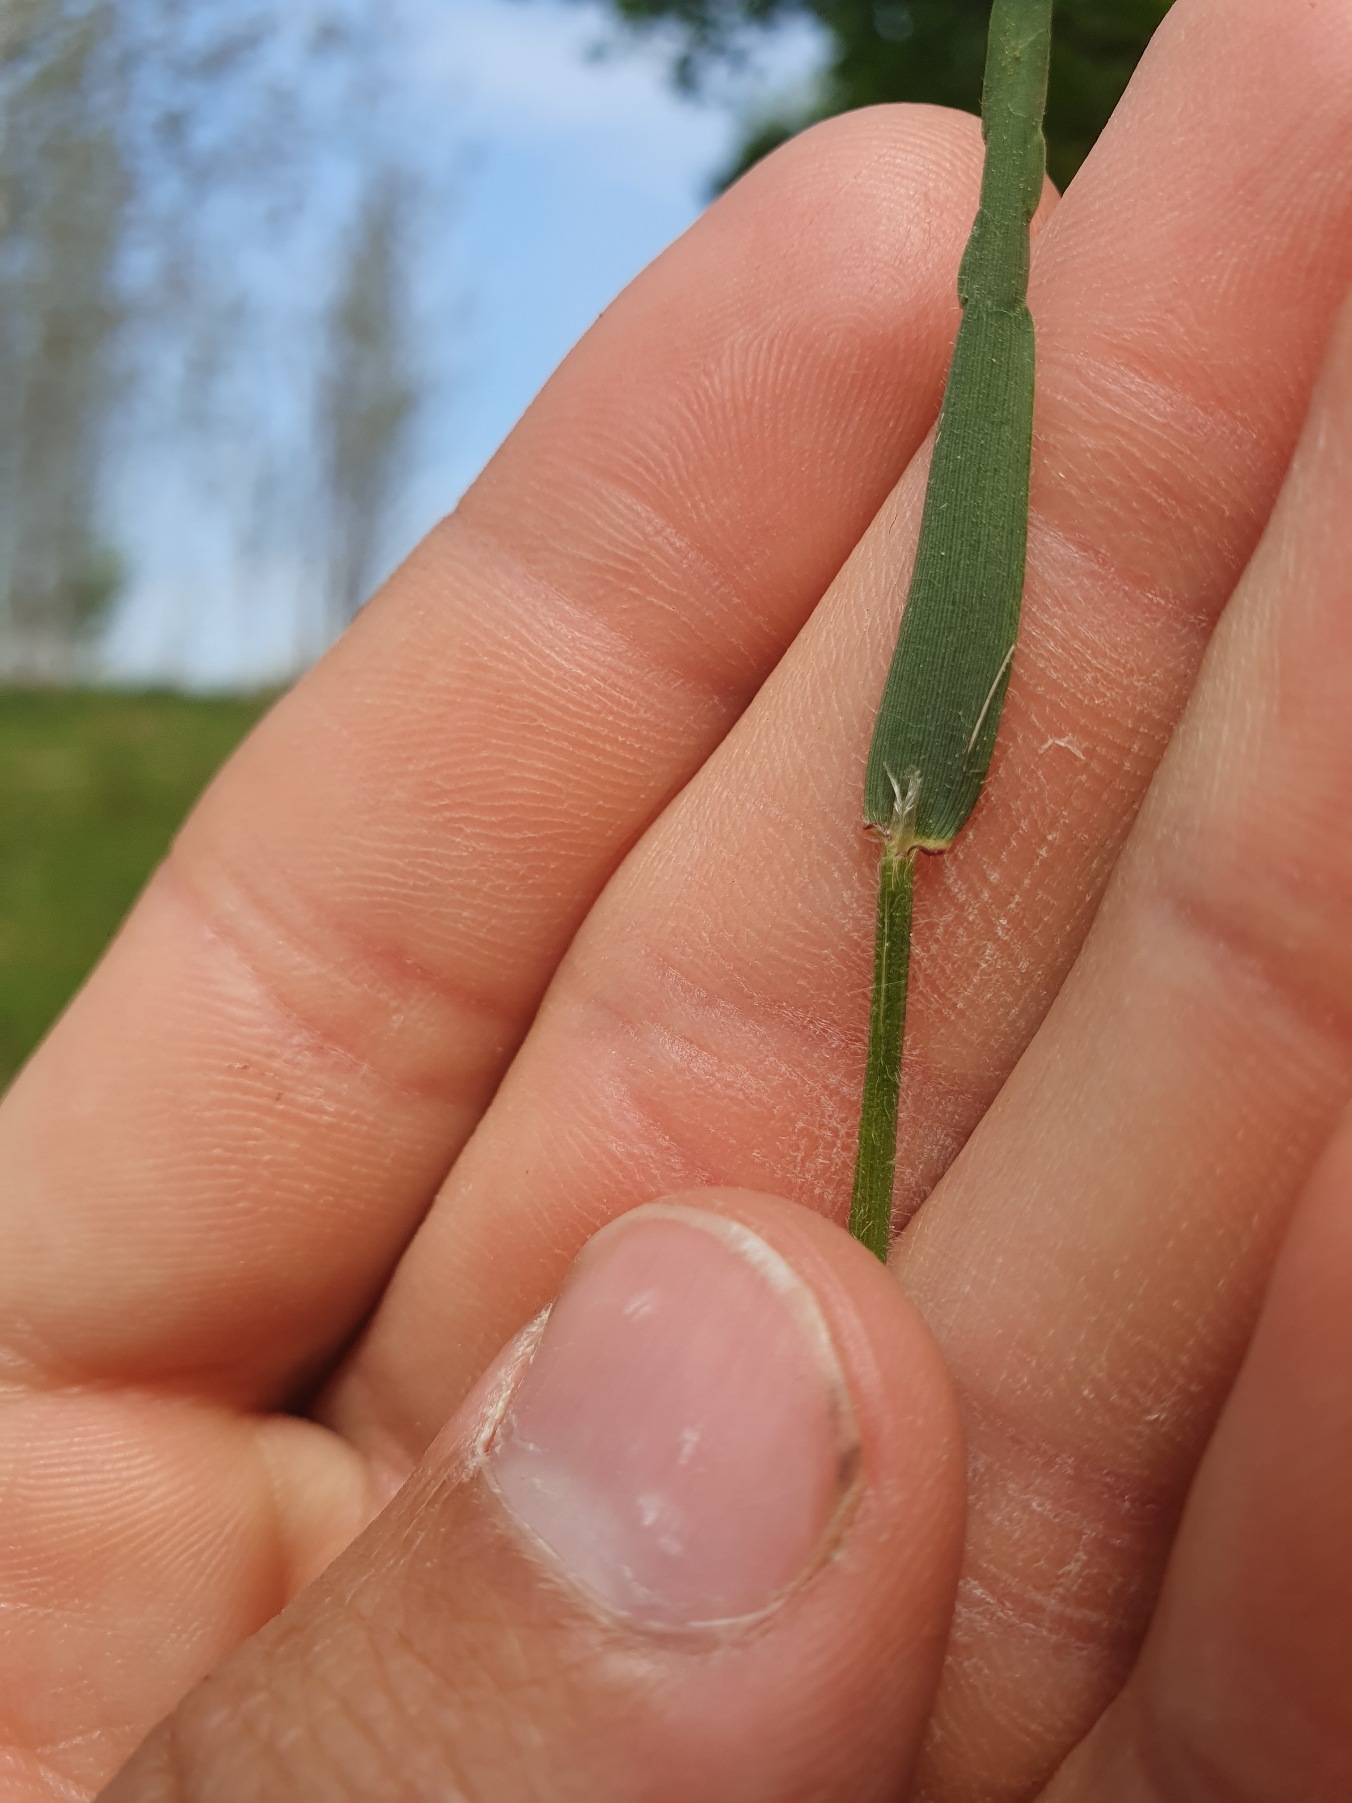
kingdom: Plantae
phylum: Tracheophyta
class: Liliopsida
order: Poales
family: Poaceae
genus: Anthoxanthum
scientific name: Anthoxanthum odoratum
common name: Vellugtende gulaks
